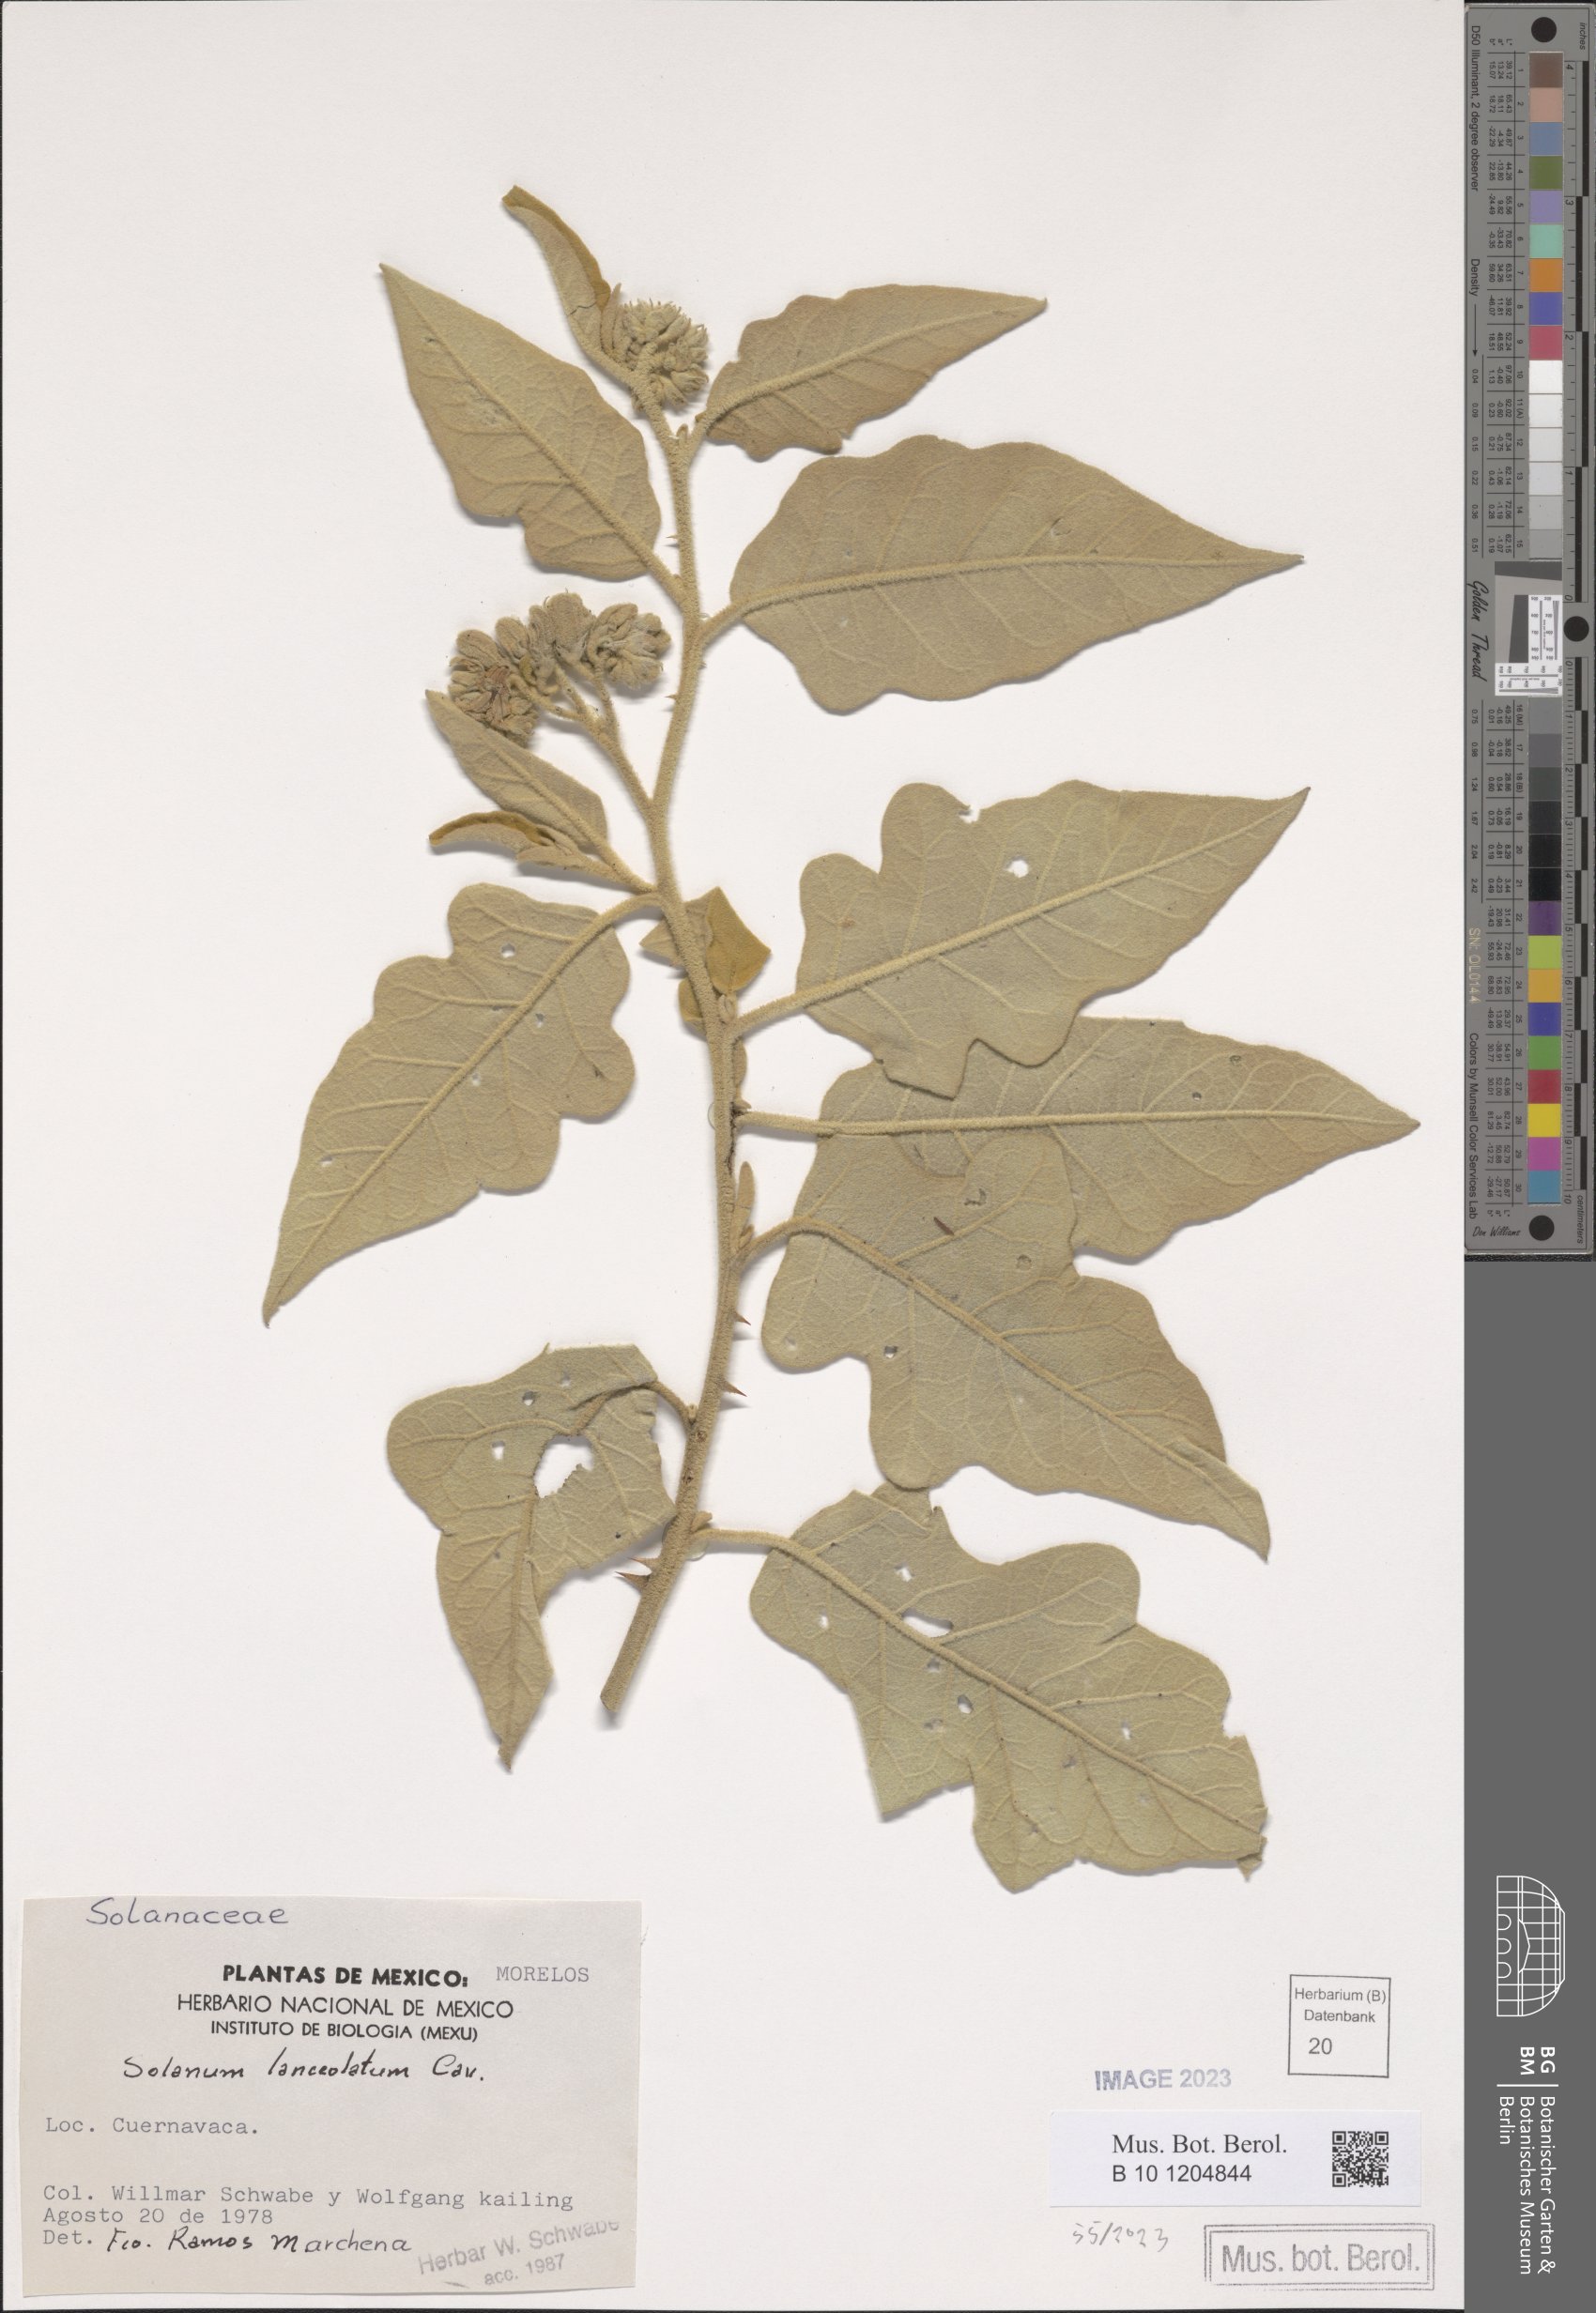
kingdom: Plantae
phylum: Tracheophyta
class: Magnoliopsida
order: Solanales
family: Solanaceae
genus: Solanum
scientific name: Solanum lanceolatum
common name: Orangeberry nightshade
